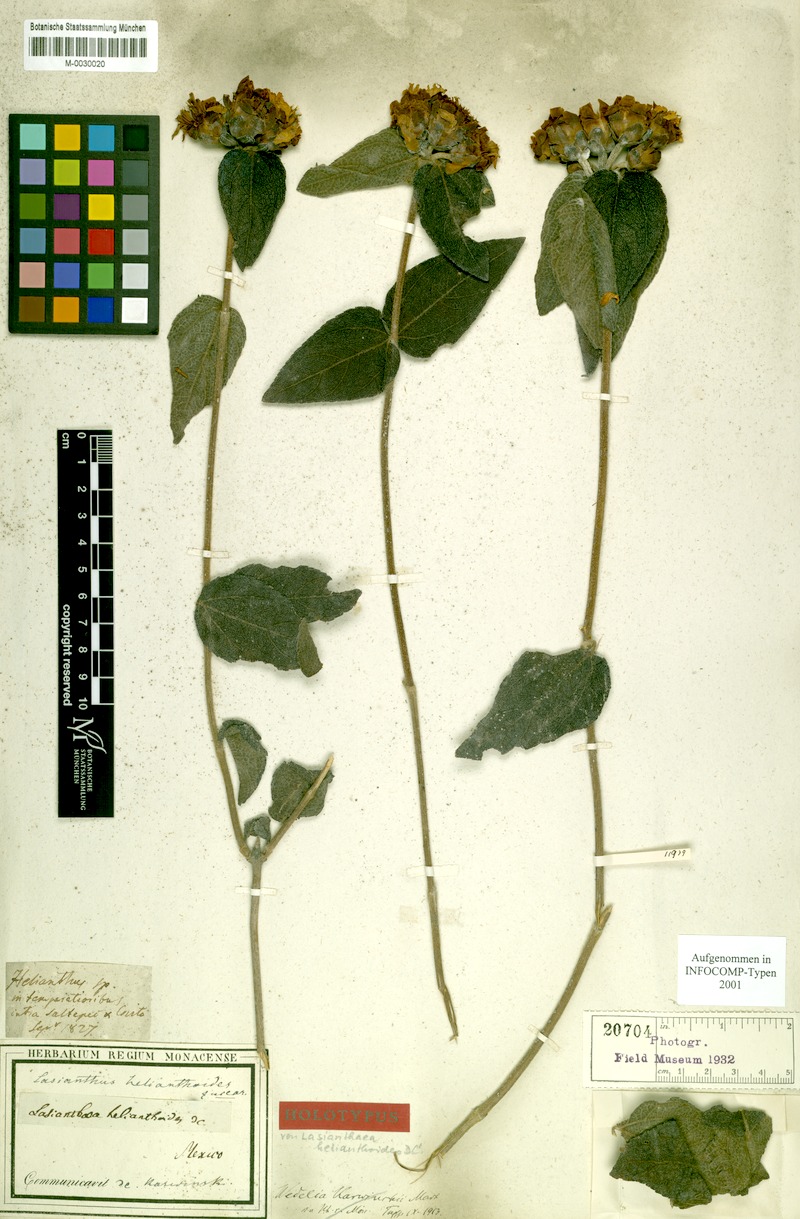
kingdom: Plantae
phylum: Tracheophyta
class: Magnoliopsida
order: Asterales
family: Asteraceae
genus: Lasianthaea
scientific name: Lasianthaea helianthoides
